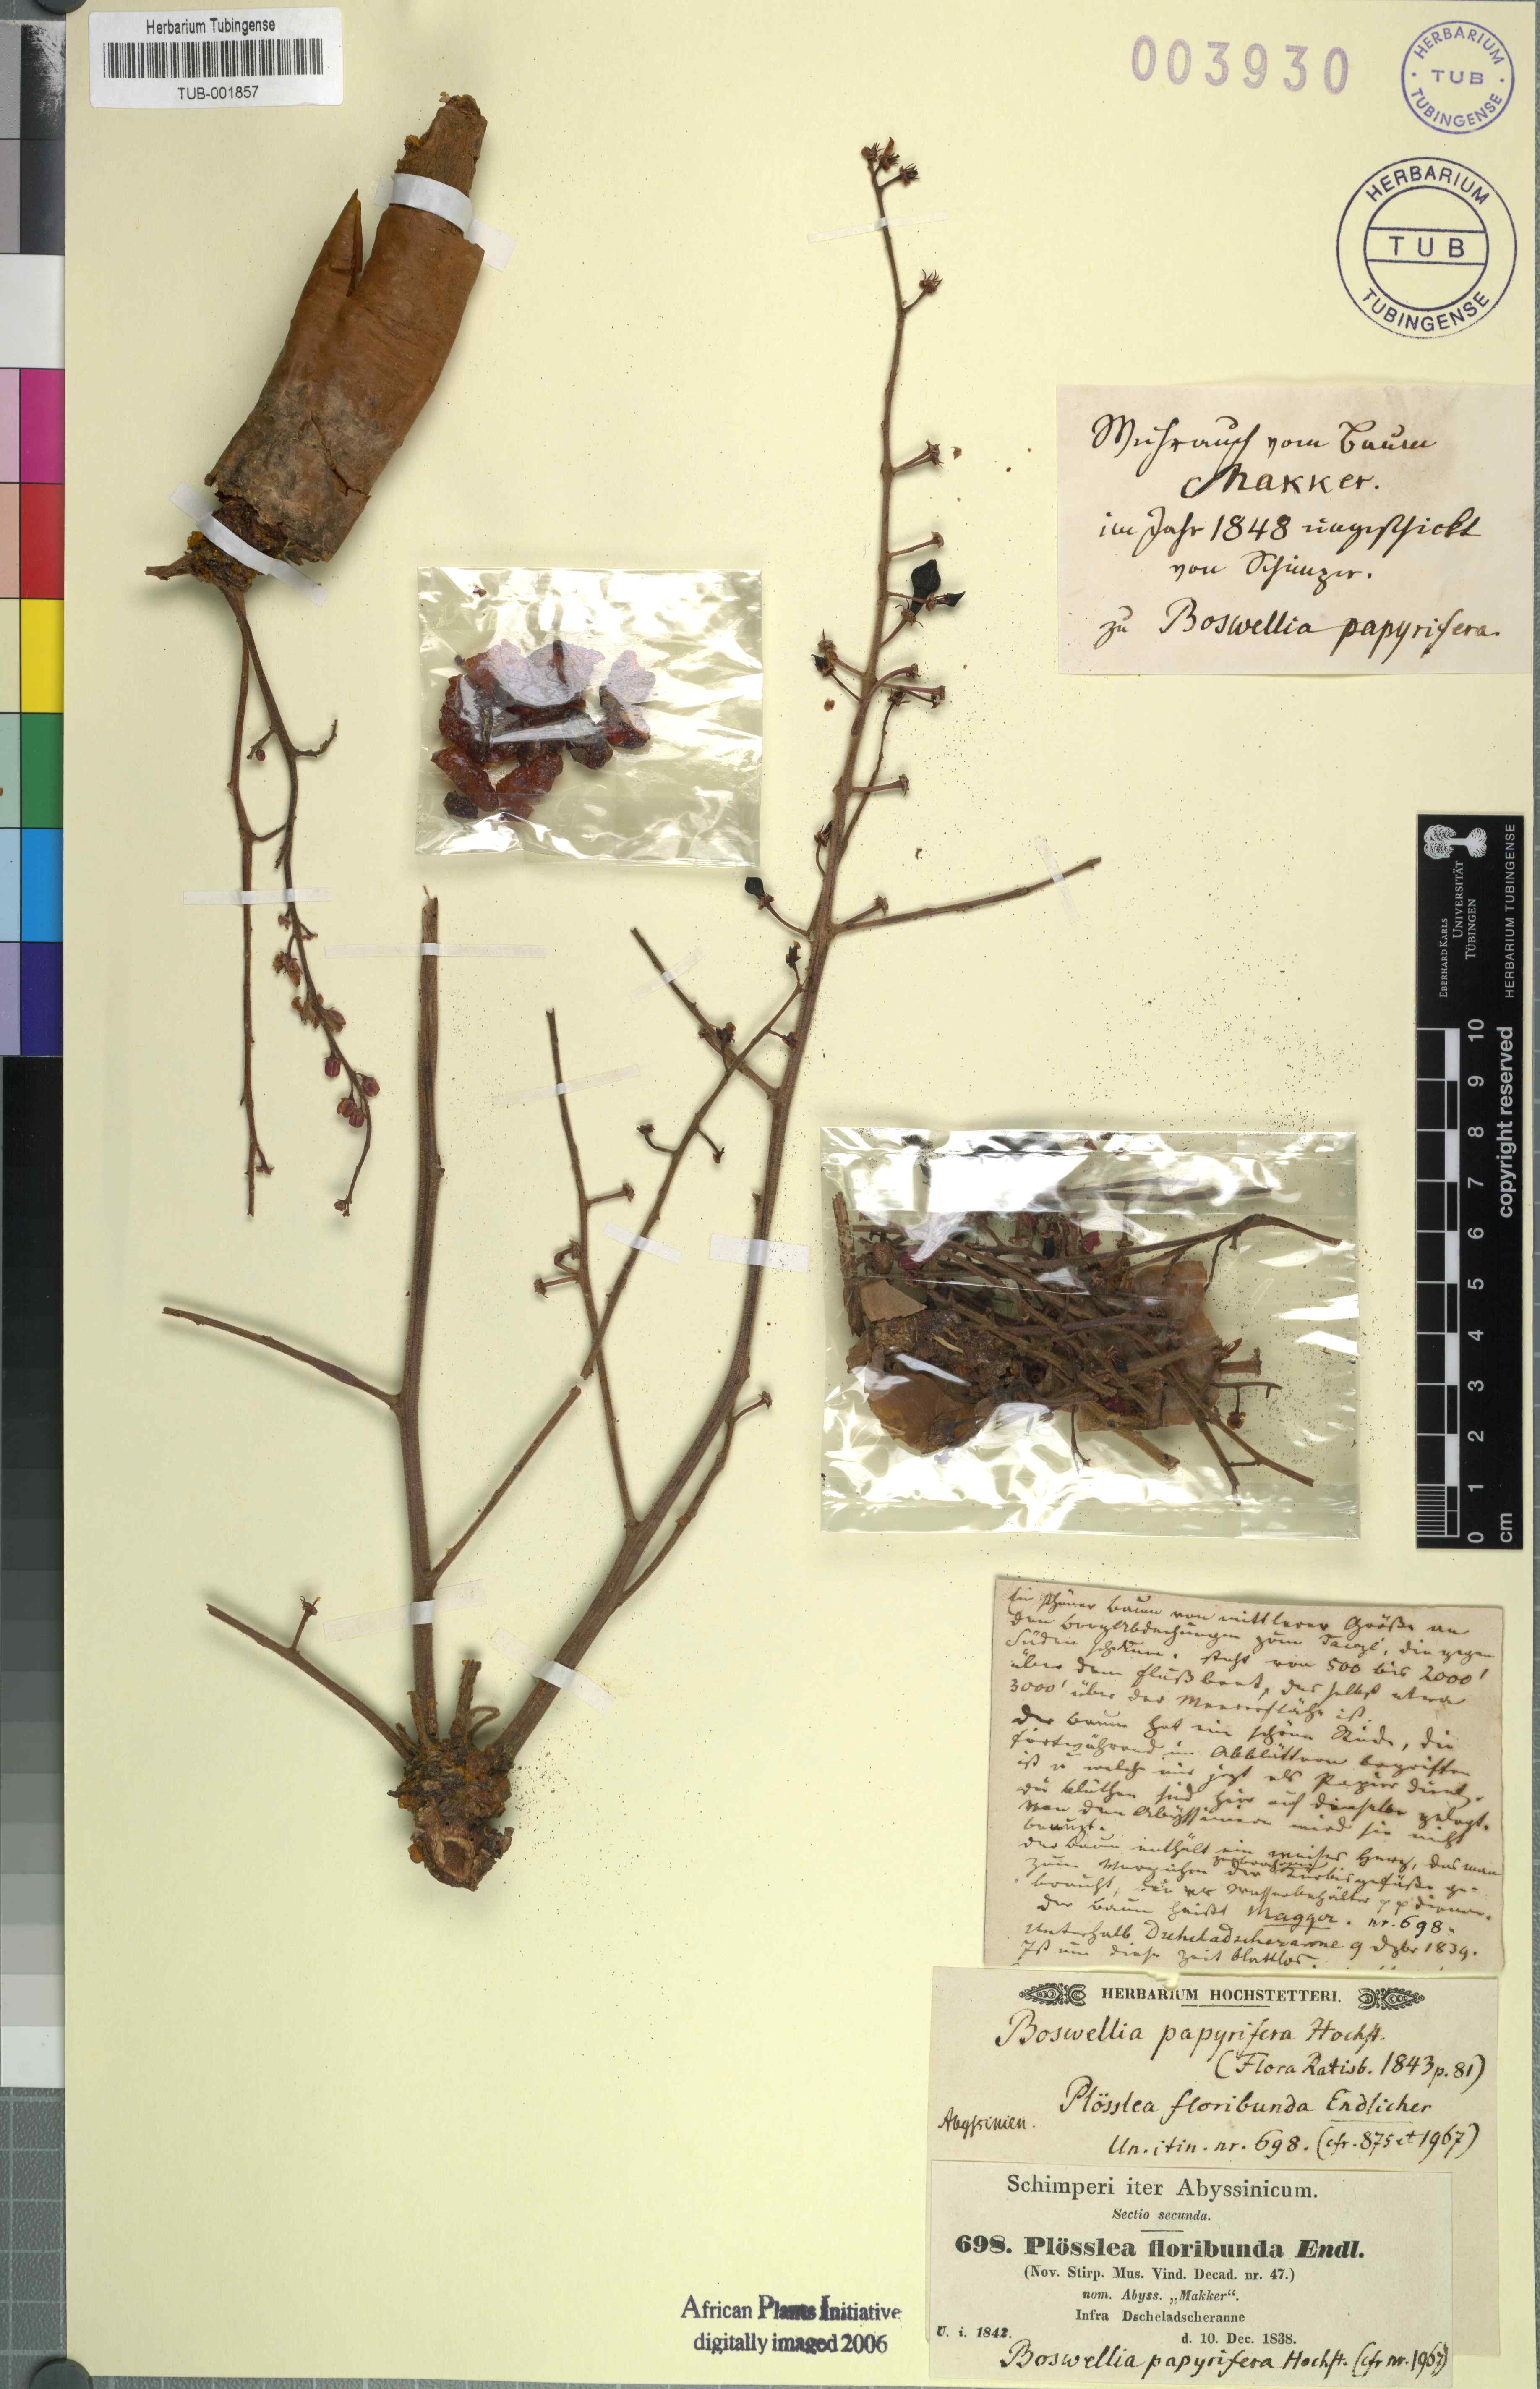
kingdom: Plantae
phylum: Tracheophyta
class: Magnoliopsida
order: Sapindales
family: Burseraceae
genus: Boswellia
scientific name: Boswellia papyrifera
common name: Sudanese frankincense
